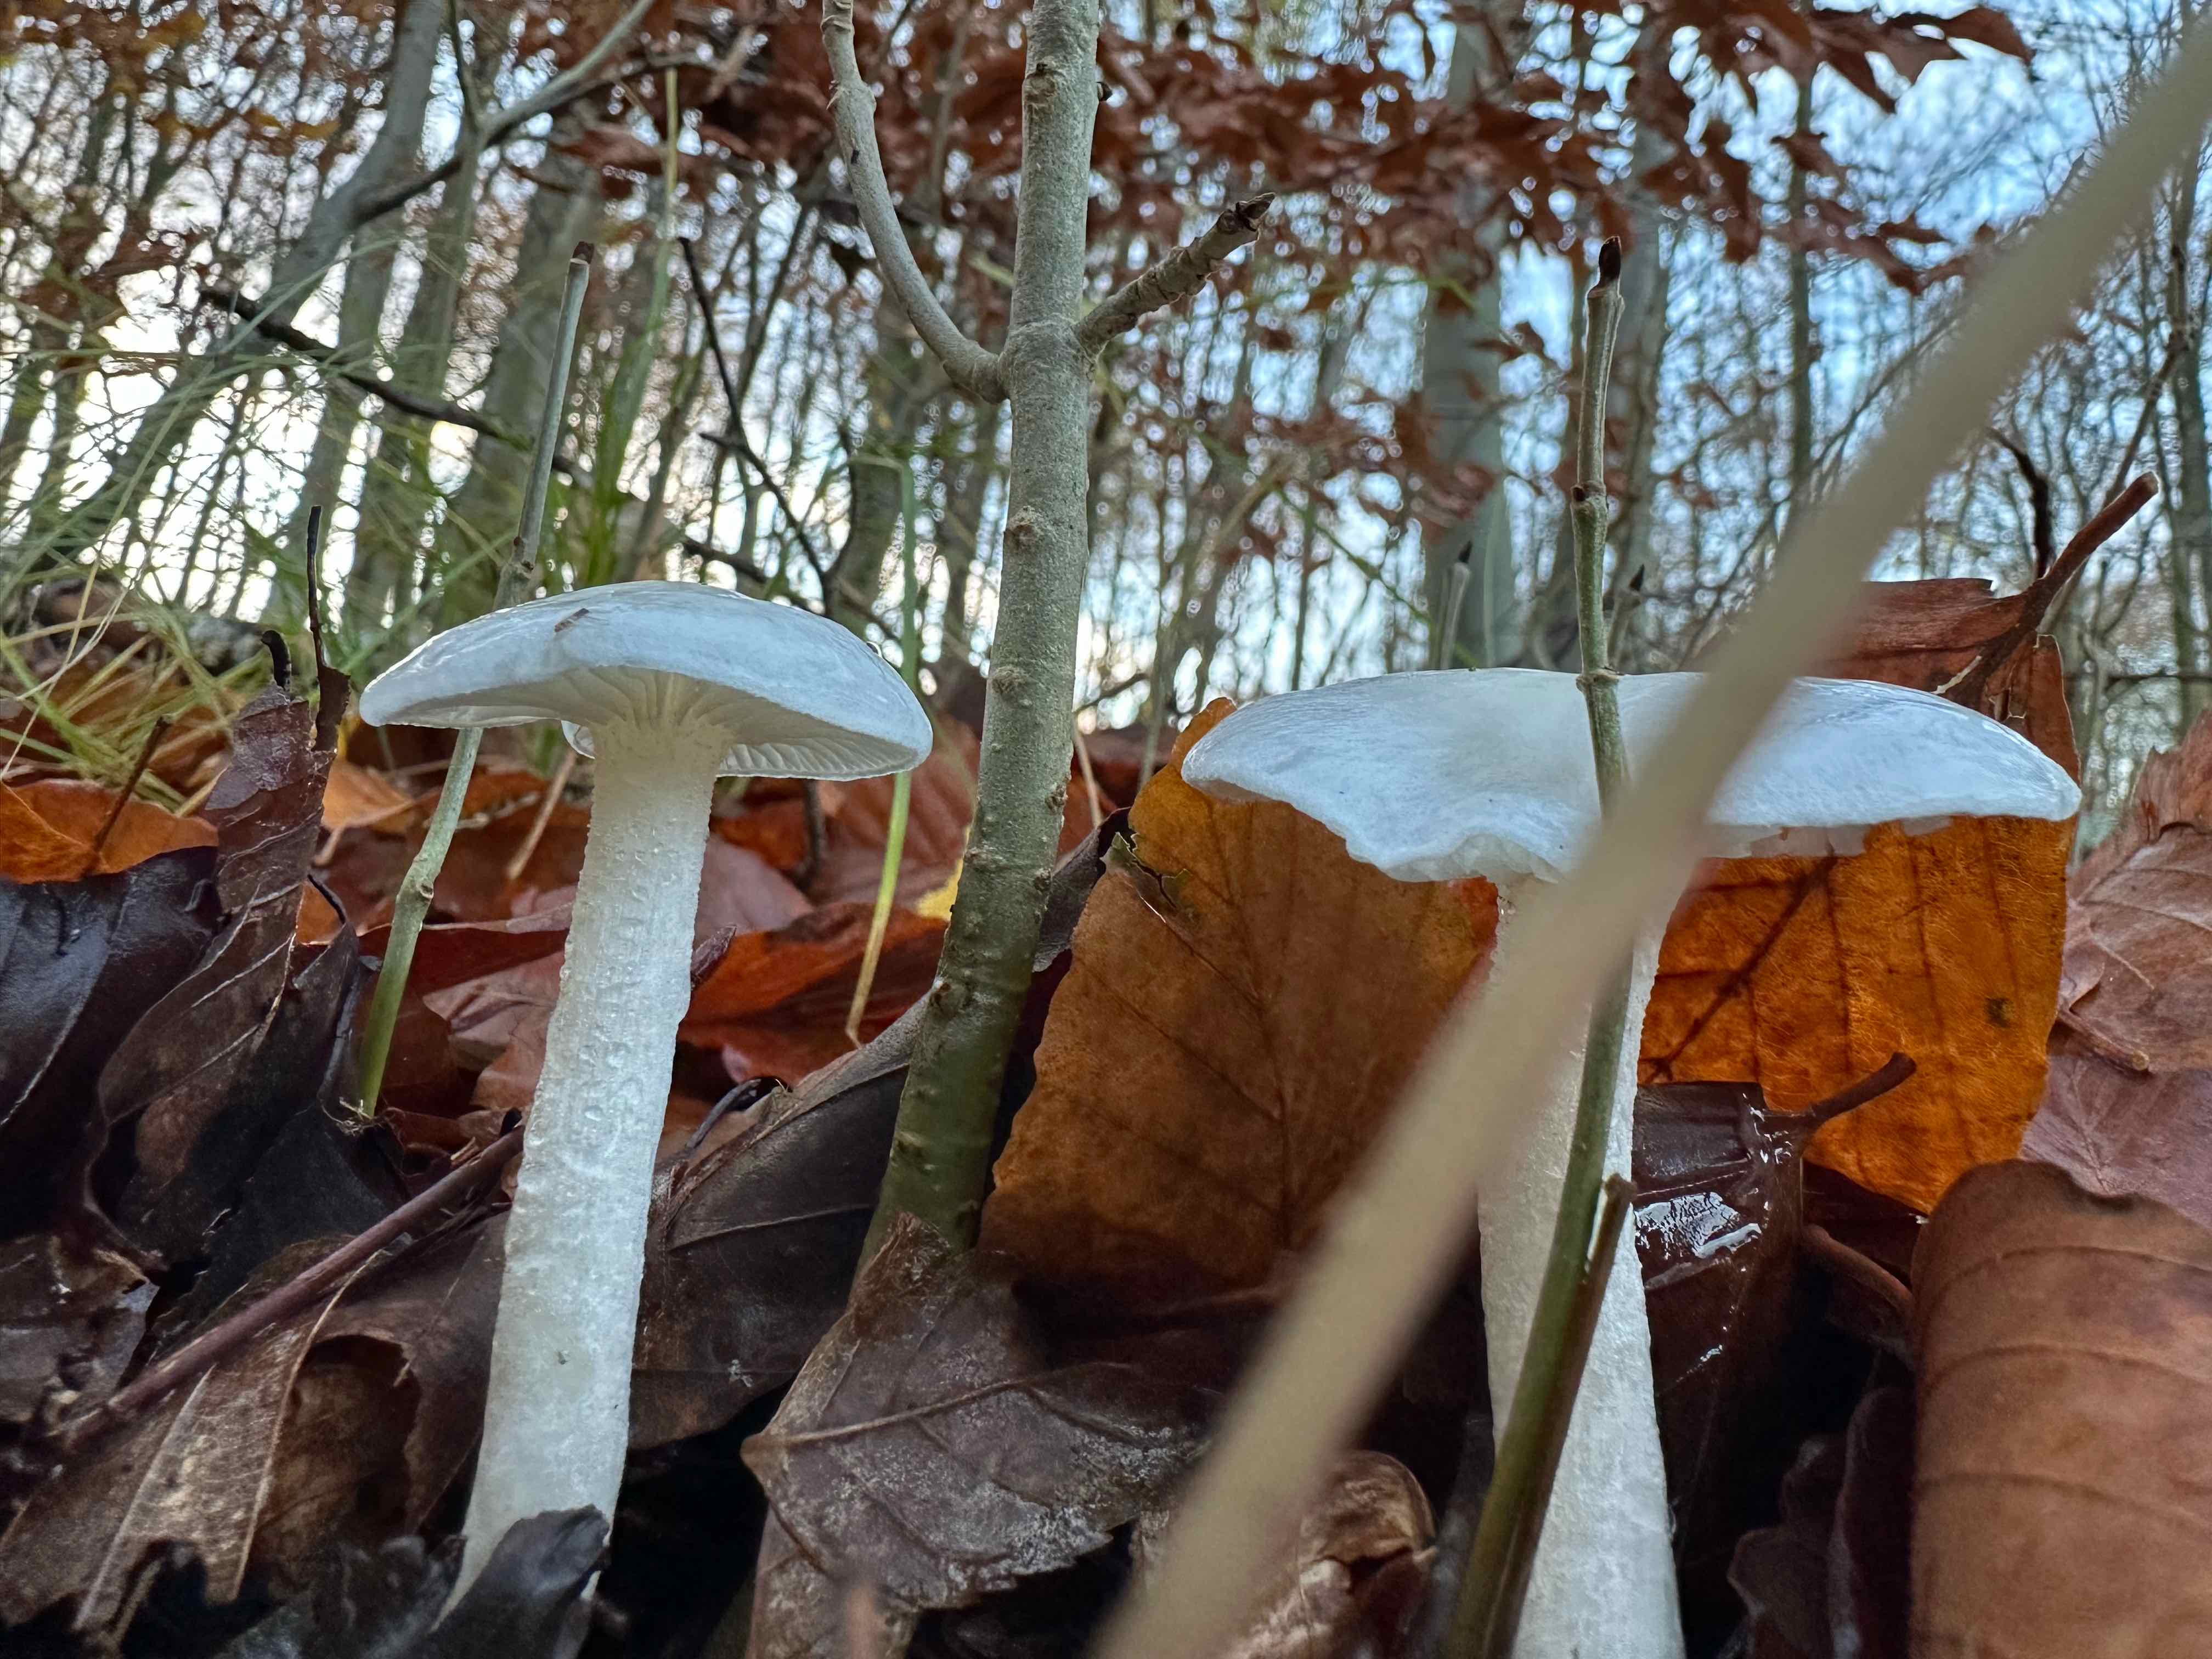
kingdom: Fungi
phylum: Basidiomycota
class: Agaricomycetes
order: Agaricales
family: Hygrophoraceae
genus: Hygrophorus
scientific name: Hygrophorus eburneus
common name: elfenbens-sneglehat
